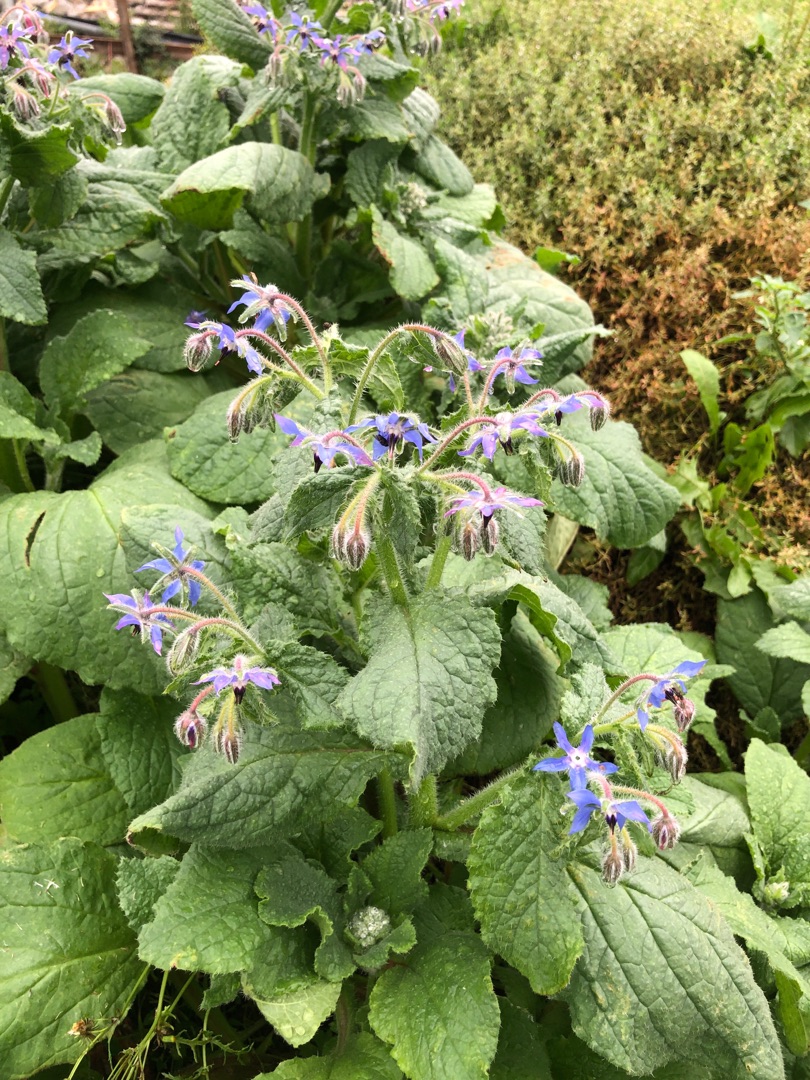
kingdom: Plantae
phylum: Tracheophyta
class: Magnoliopsida
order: Boraginales
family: Boraginaceae
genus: Borago
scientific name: Borago officinalis
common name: Hjulkrone
